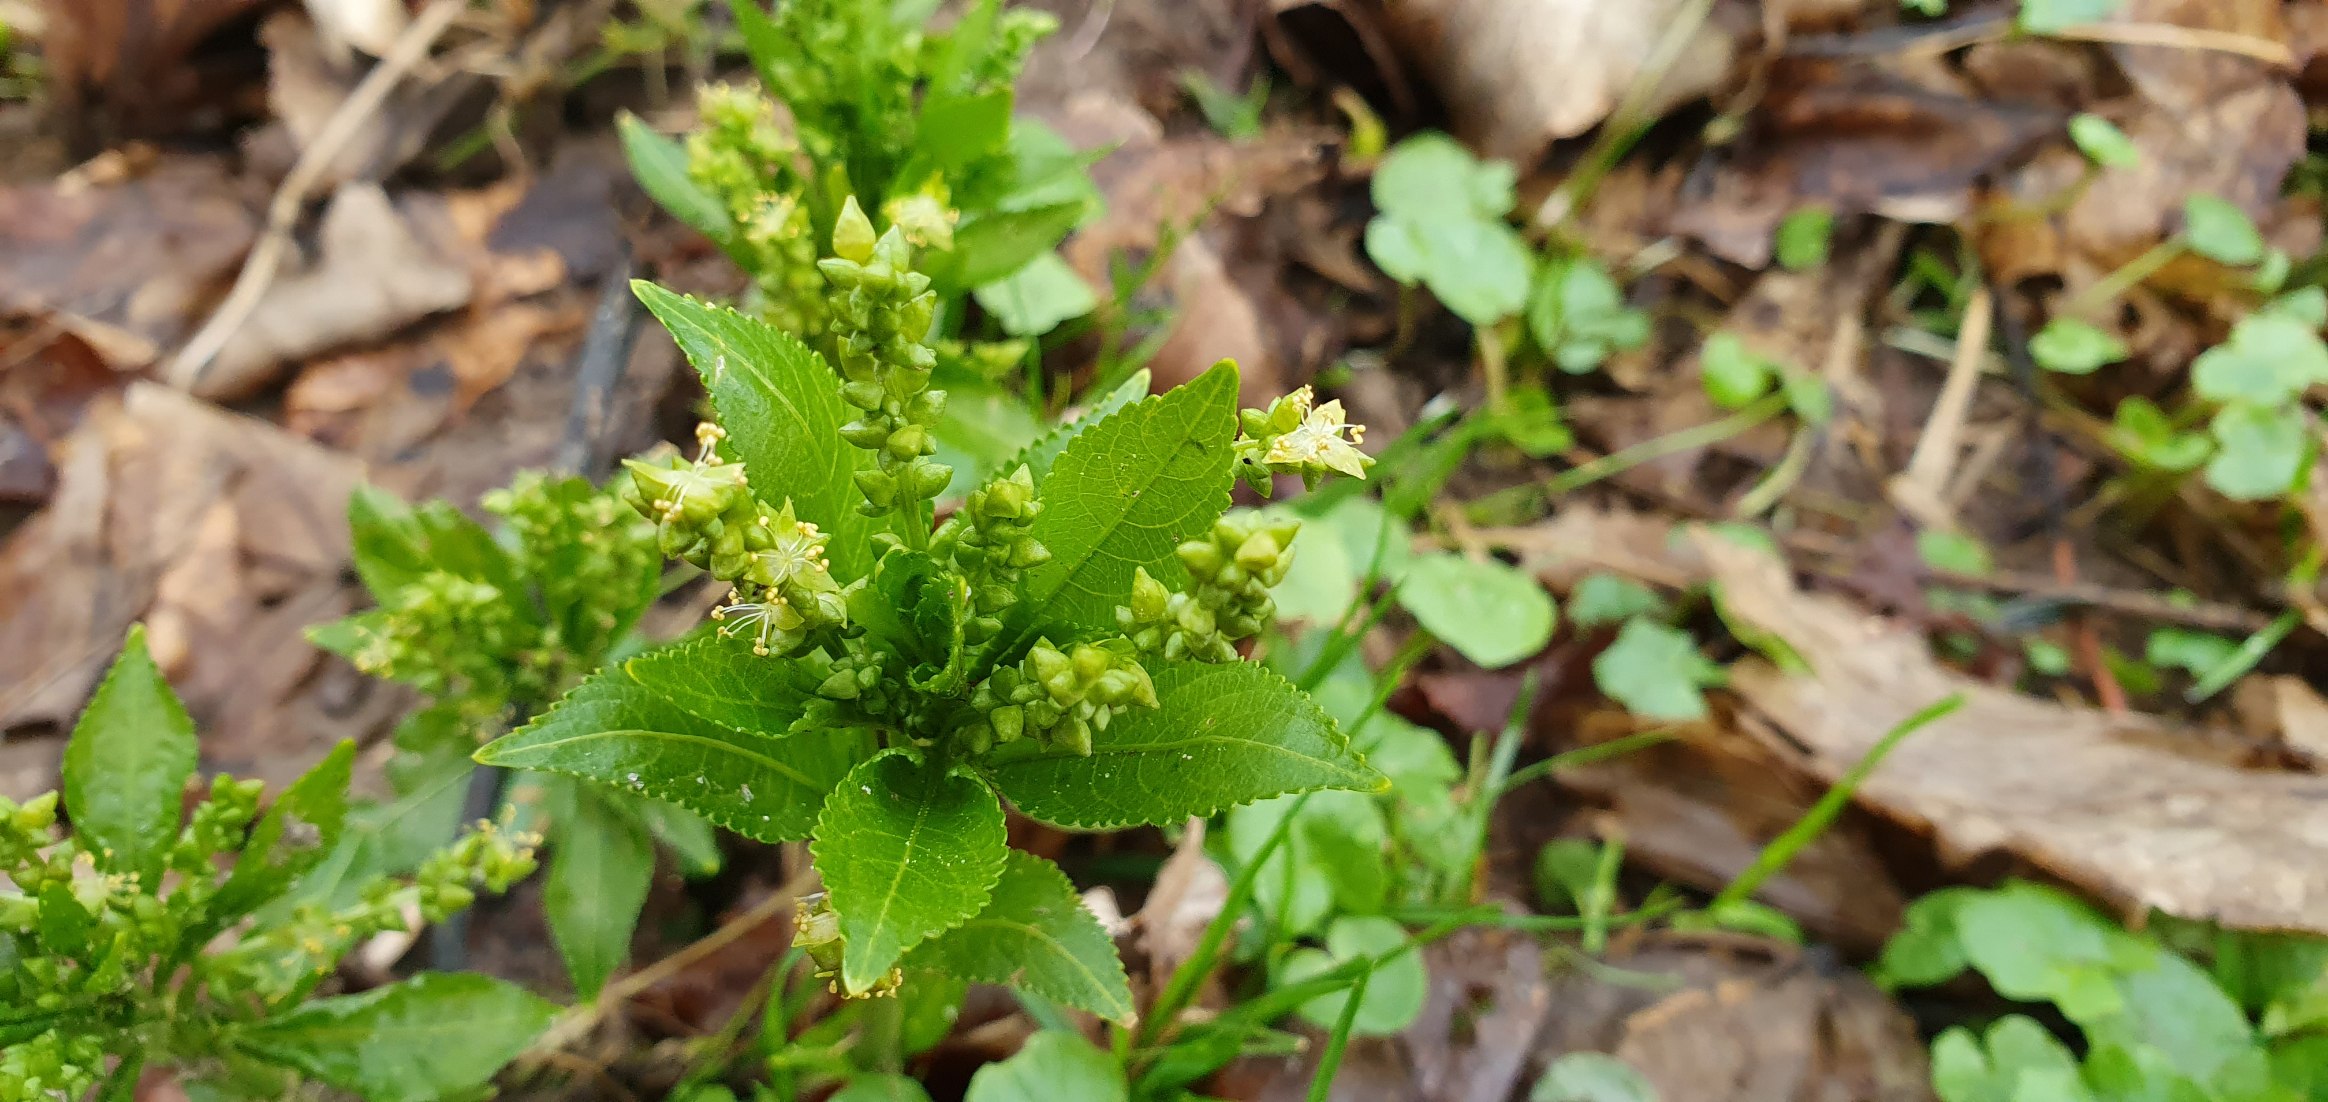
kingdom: Plantae
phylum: Tracheophyta
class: Magnoliopsida
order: Malpighiales
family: Euphorbiaceae
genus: Mercurialis
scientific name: Mercurialis perennis
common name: Almindelig bingelurt
